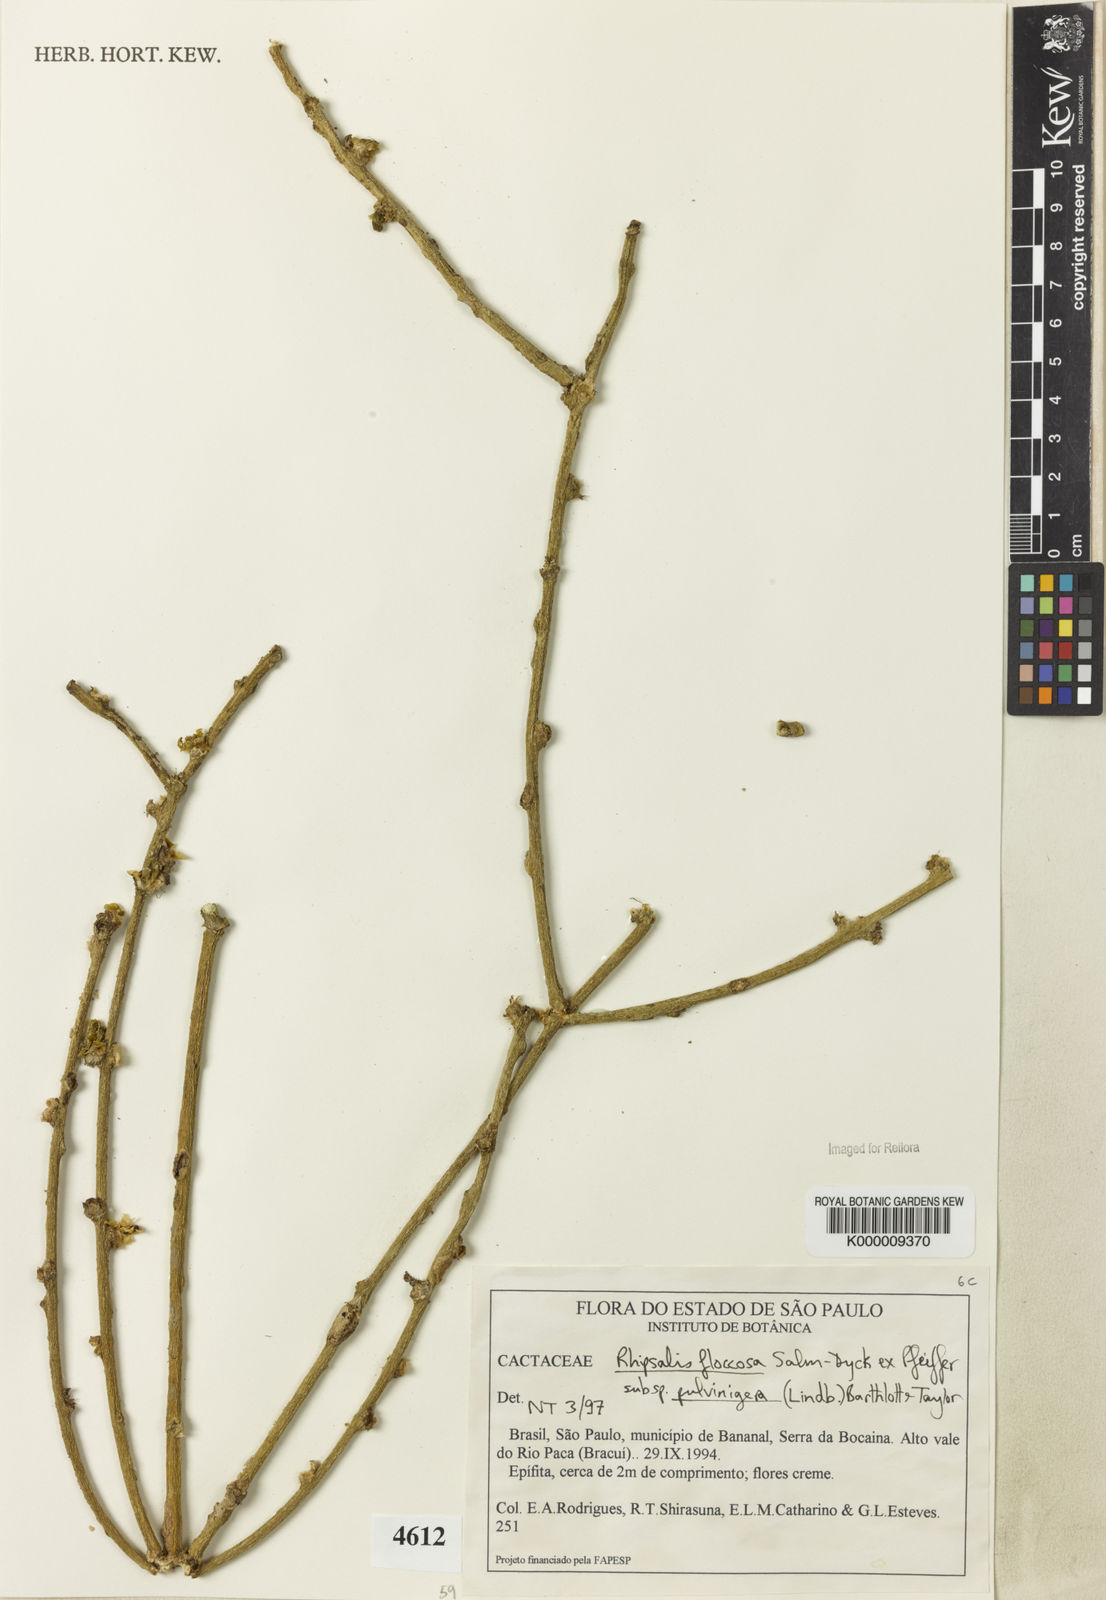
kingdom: Plantae
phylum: Tracheophyta
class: Magnoliopsida
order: Caryophyllales
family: Cactaceae
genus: Rhipsalis
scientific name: Rhipsalis floccosa
